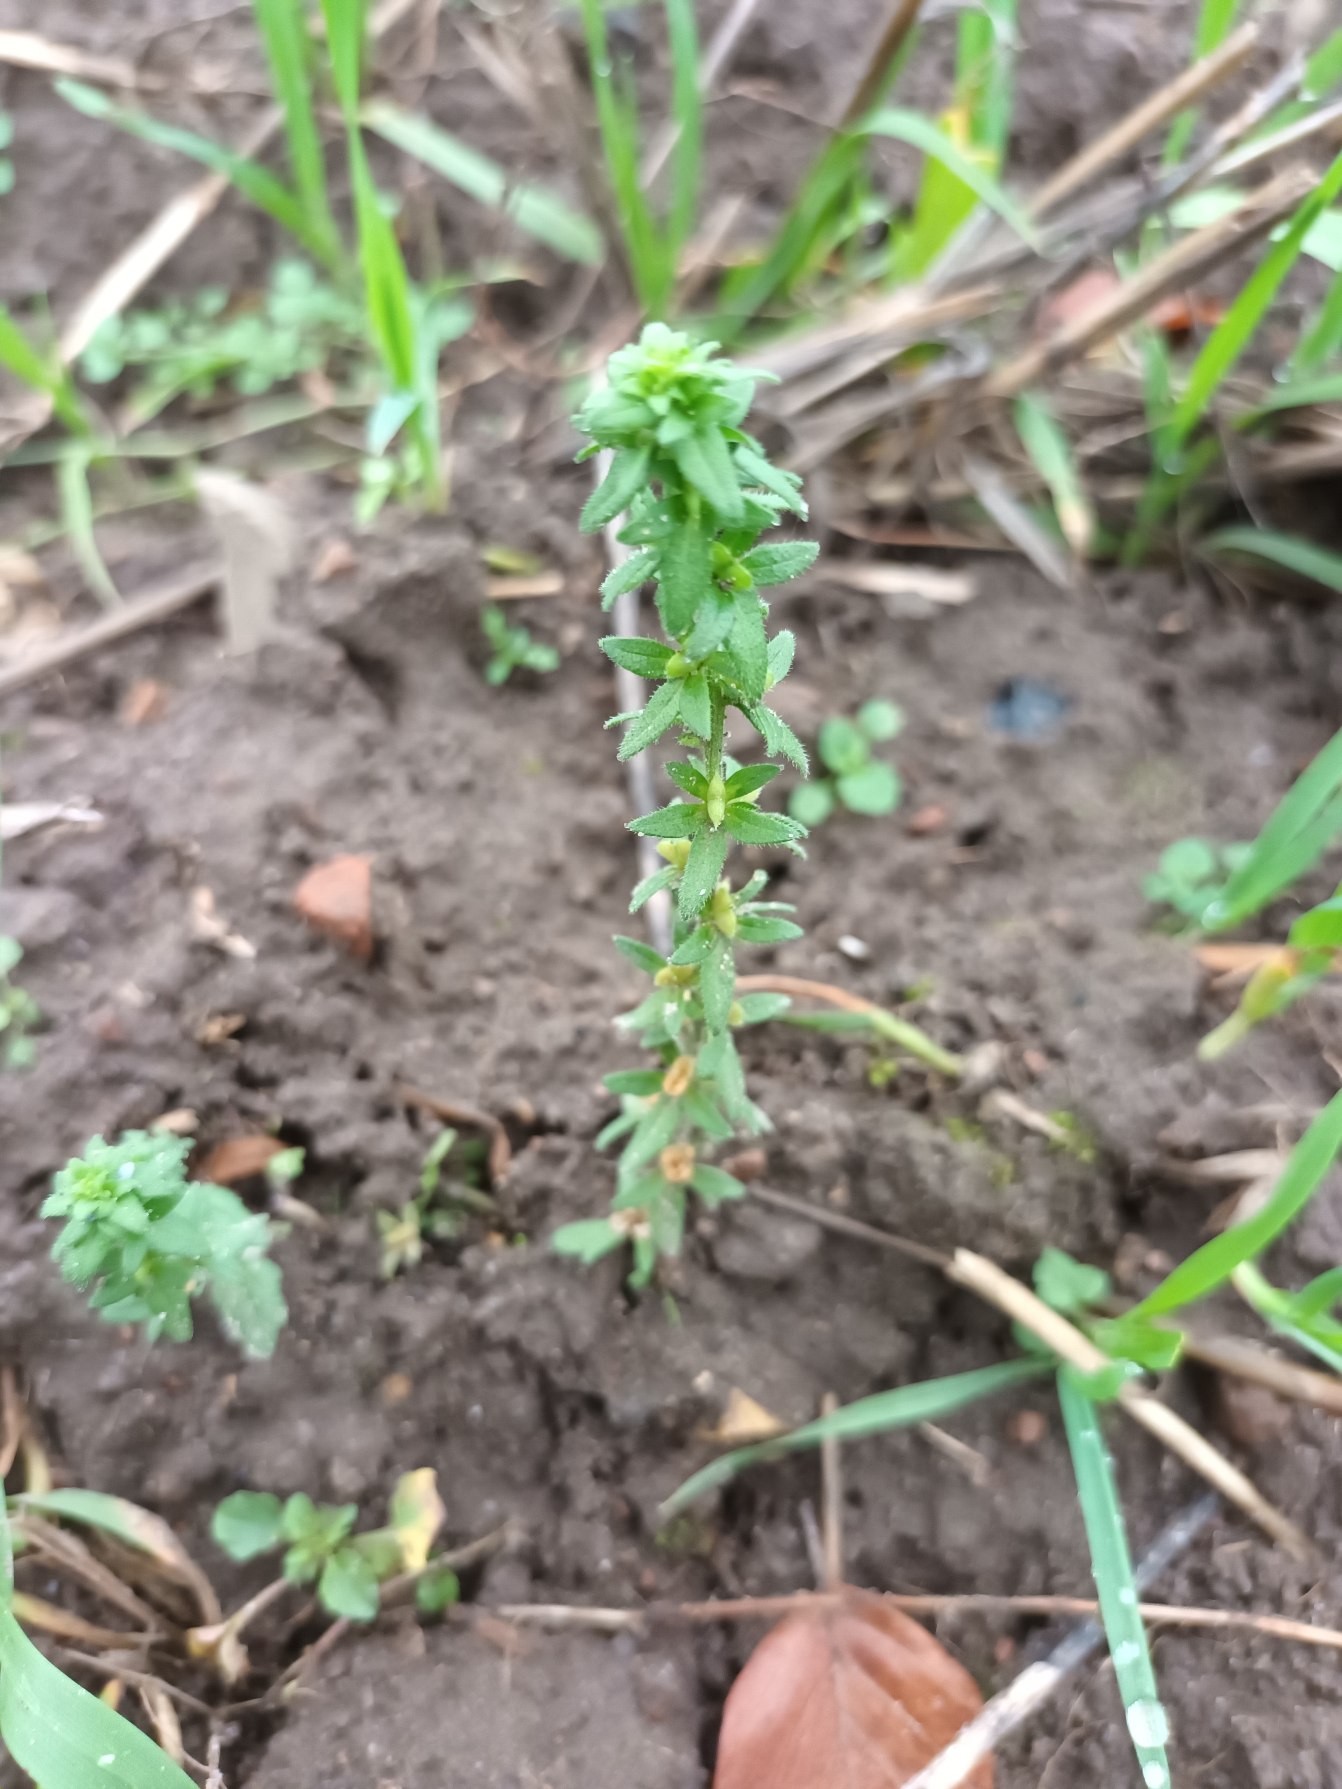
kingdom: Plantae
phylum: Tracheophyta
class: Magnoliopsida
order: Lamiales
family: Plantaginaceae
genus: Veronica
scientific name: Veronica arvensis
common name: Mark-ærenpris
